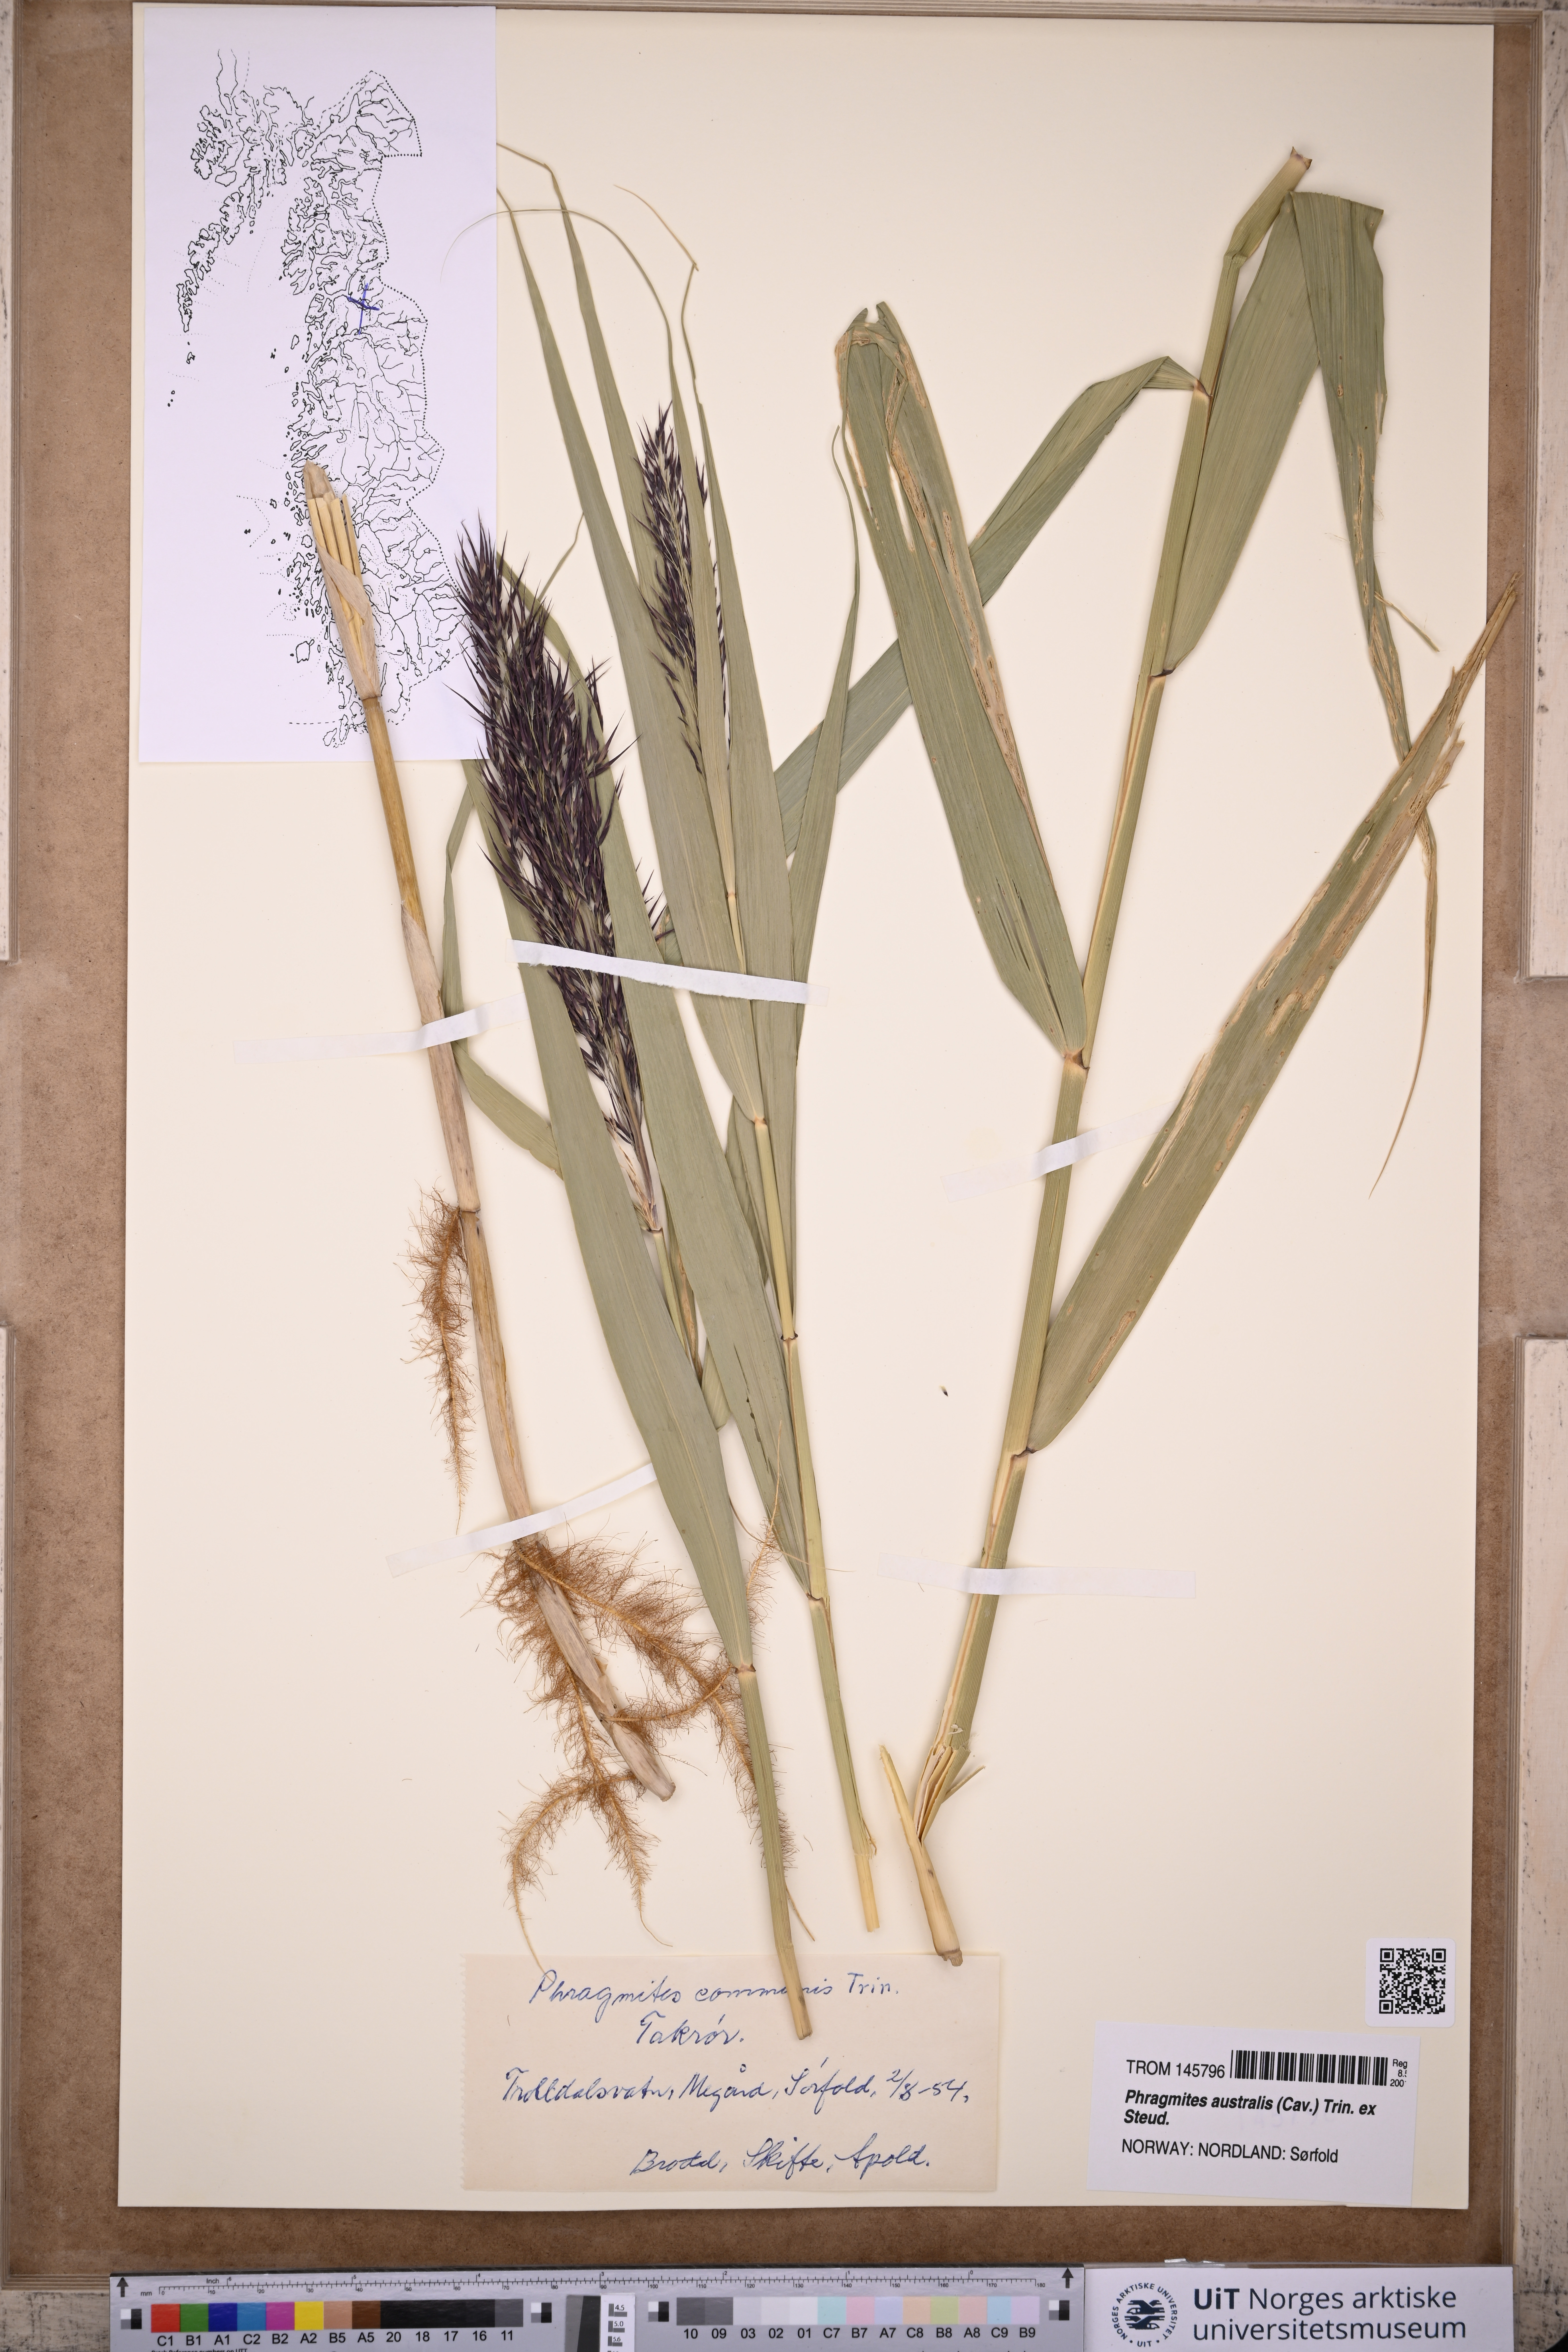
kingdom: Plantae
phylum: Tracheophyta
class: Liliopsida
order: Poales
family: Poaceae
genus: Phragmites
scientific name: Phragmites australis
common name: Common reed
